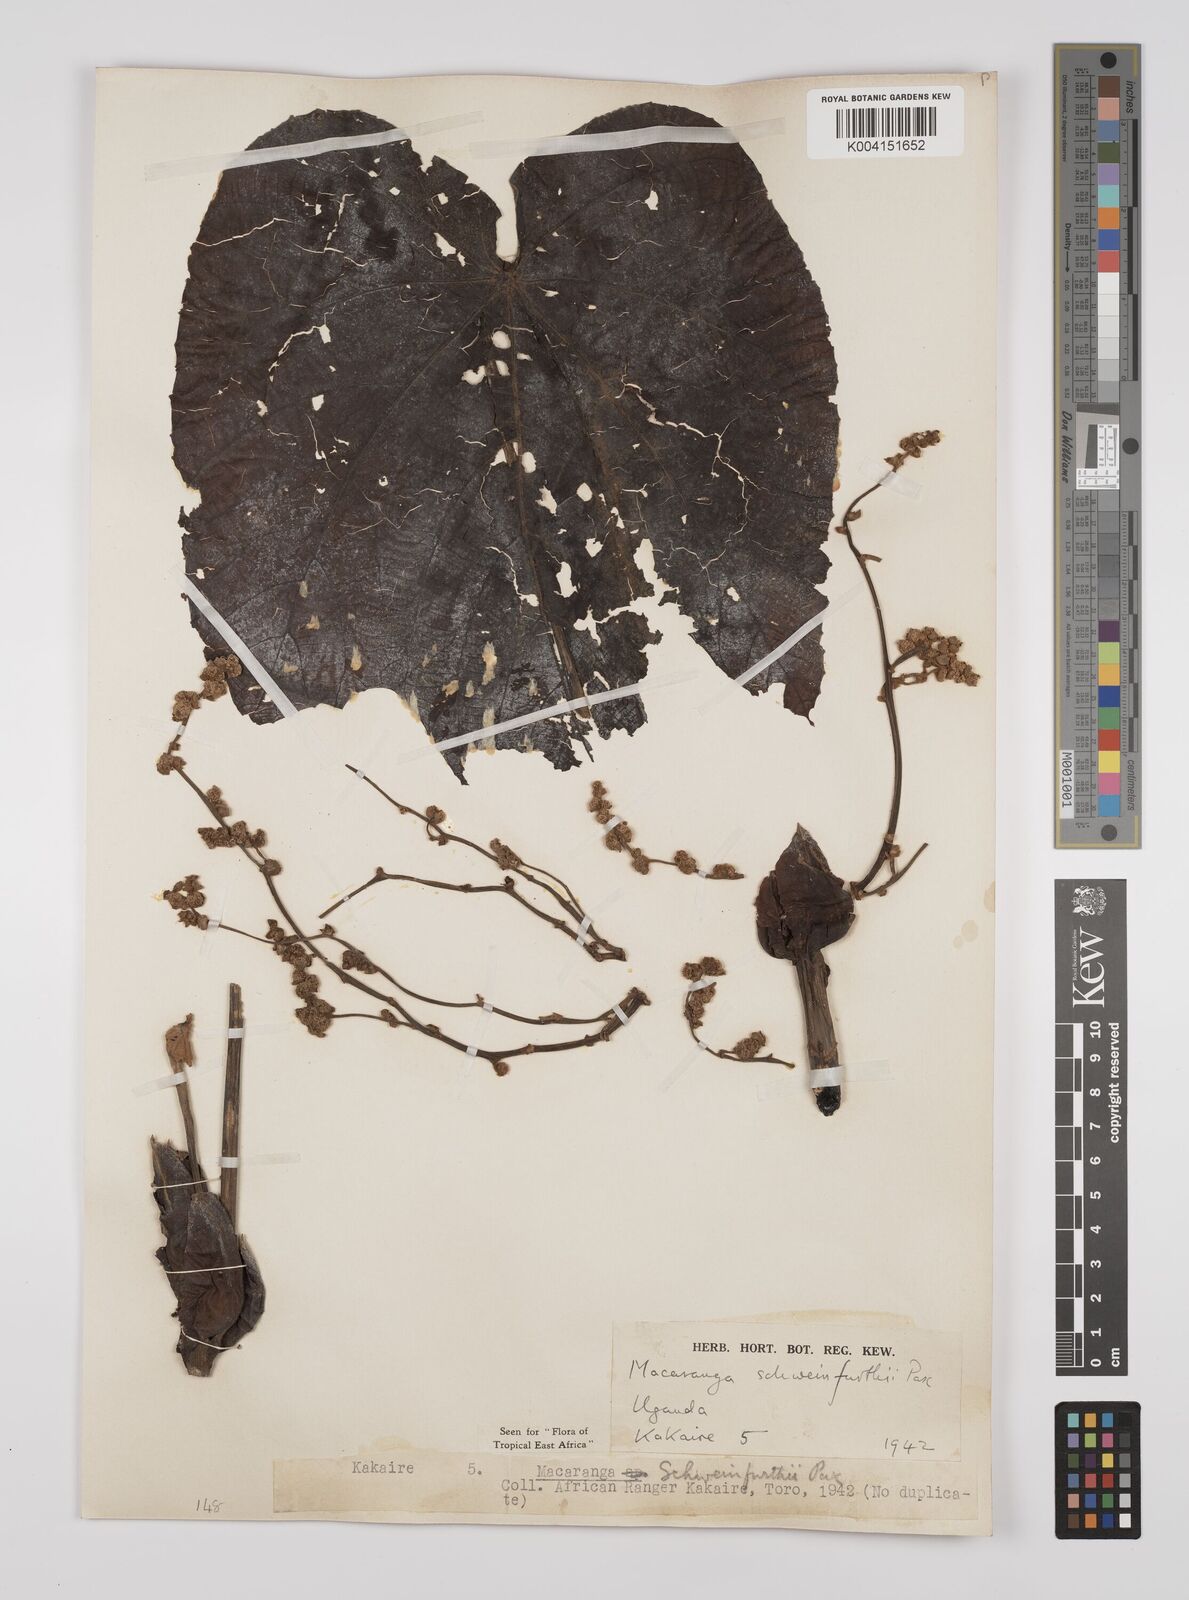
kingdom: Plantae
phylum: Tracheophyta
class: Magnoliopsida
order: Malpighiales
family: Euphorbiaceae
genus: Macaranga
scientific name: Macaranga schweinfurthii
